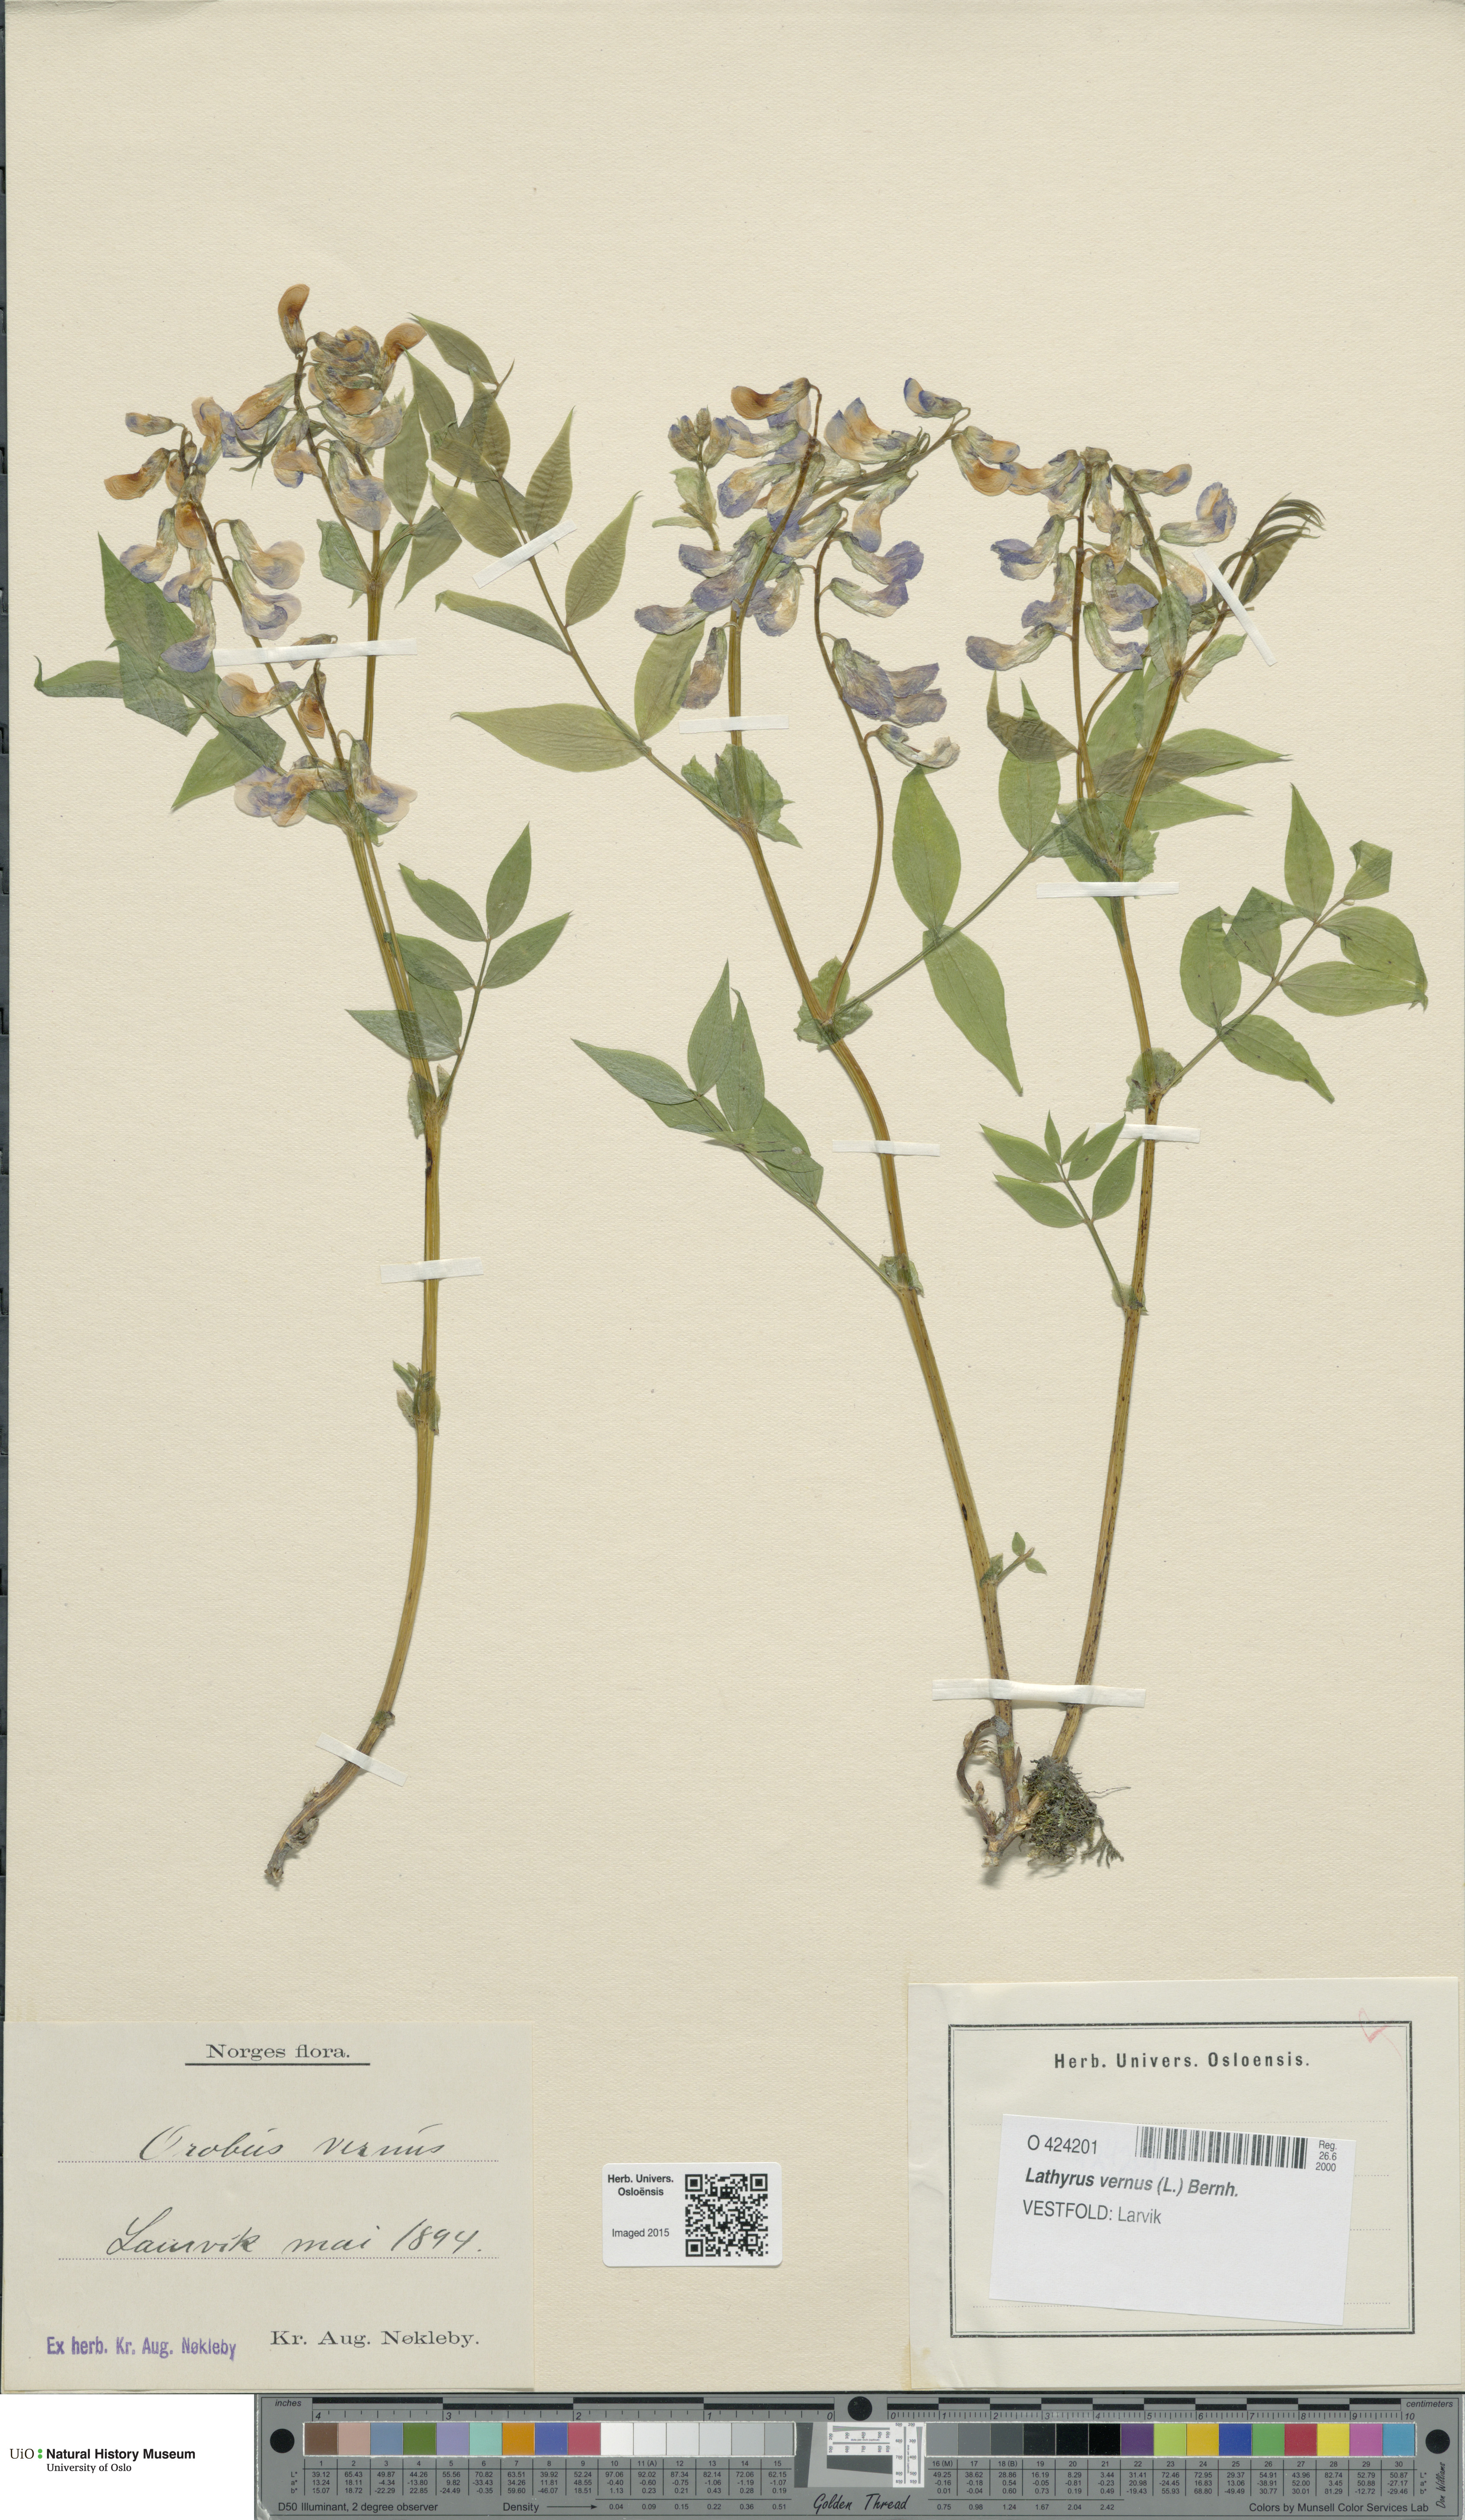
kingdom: Plantae
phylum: Tracheophyta
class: Magnoliopsida
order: Fabales
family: Fabaceae
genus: Lathyrus
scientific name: Lathyrus vernus
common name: Spring pea
